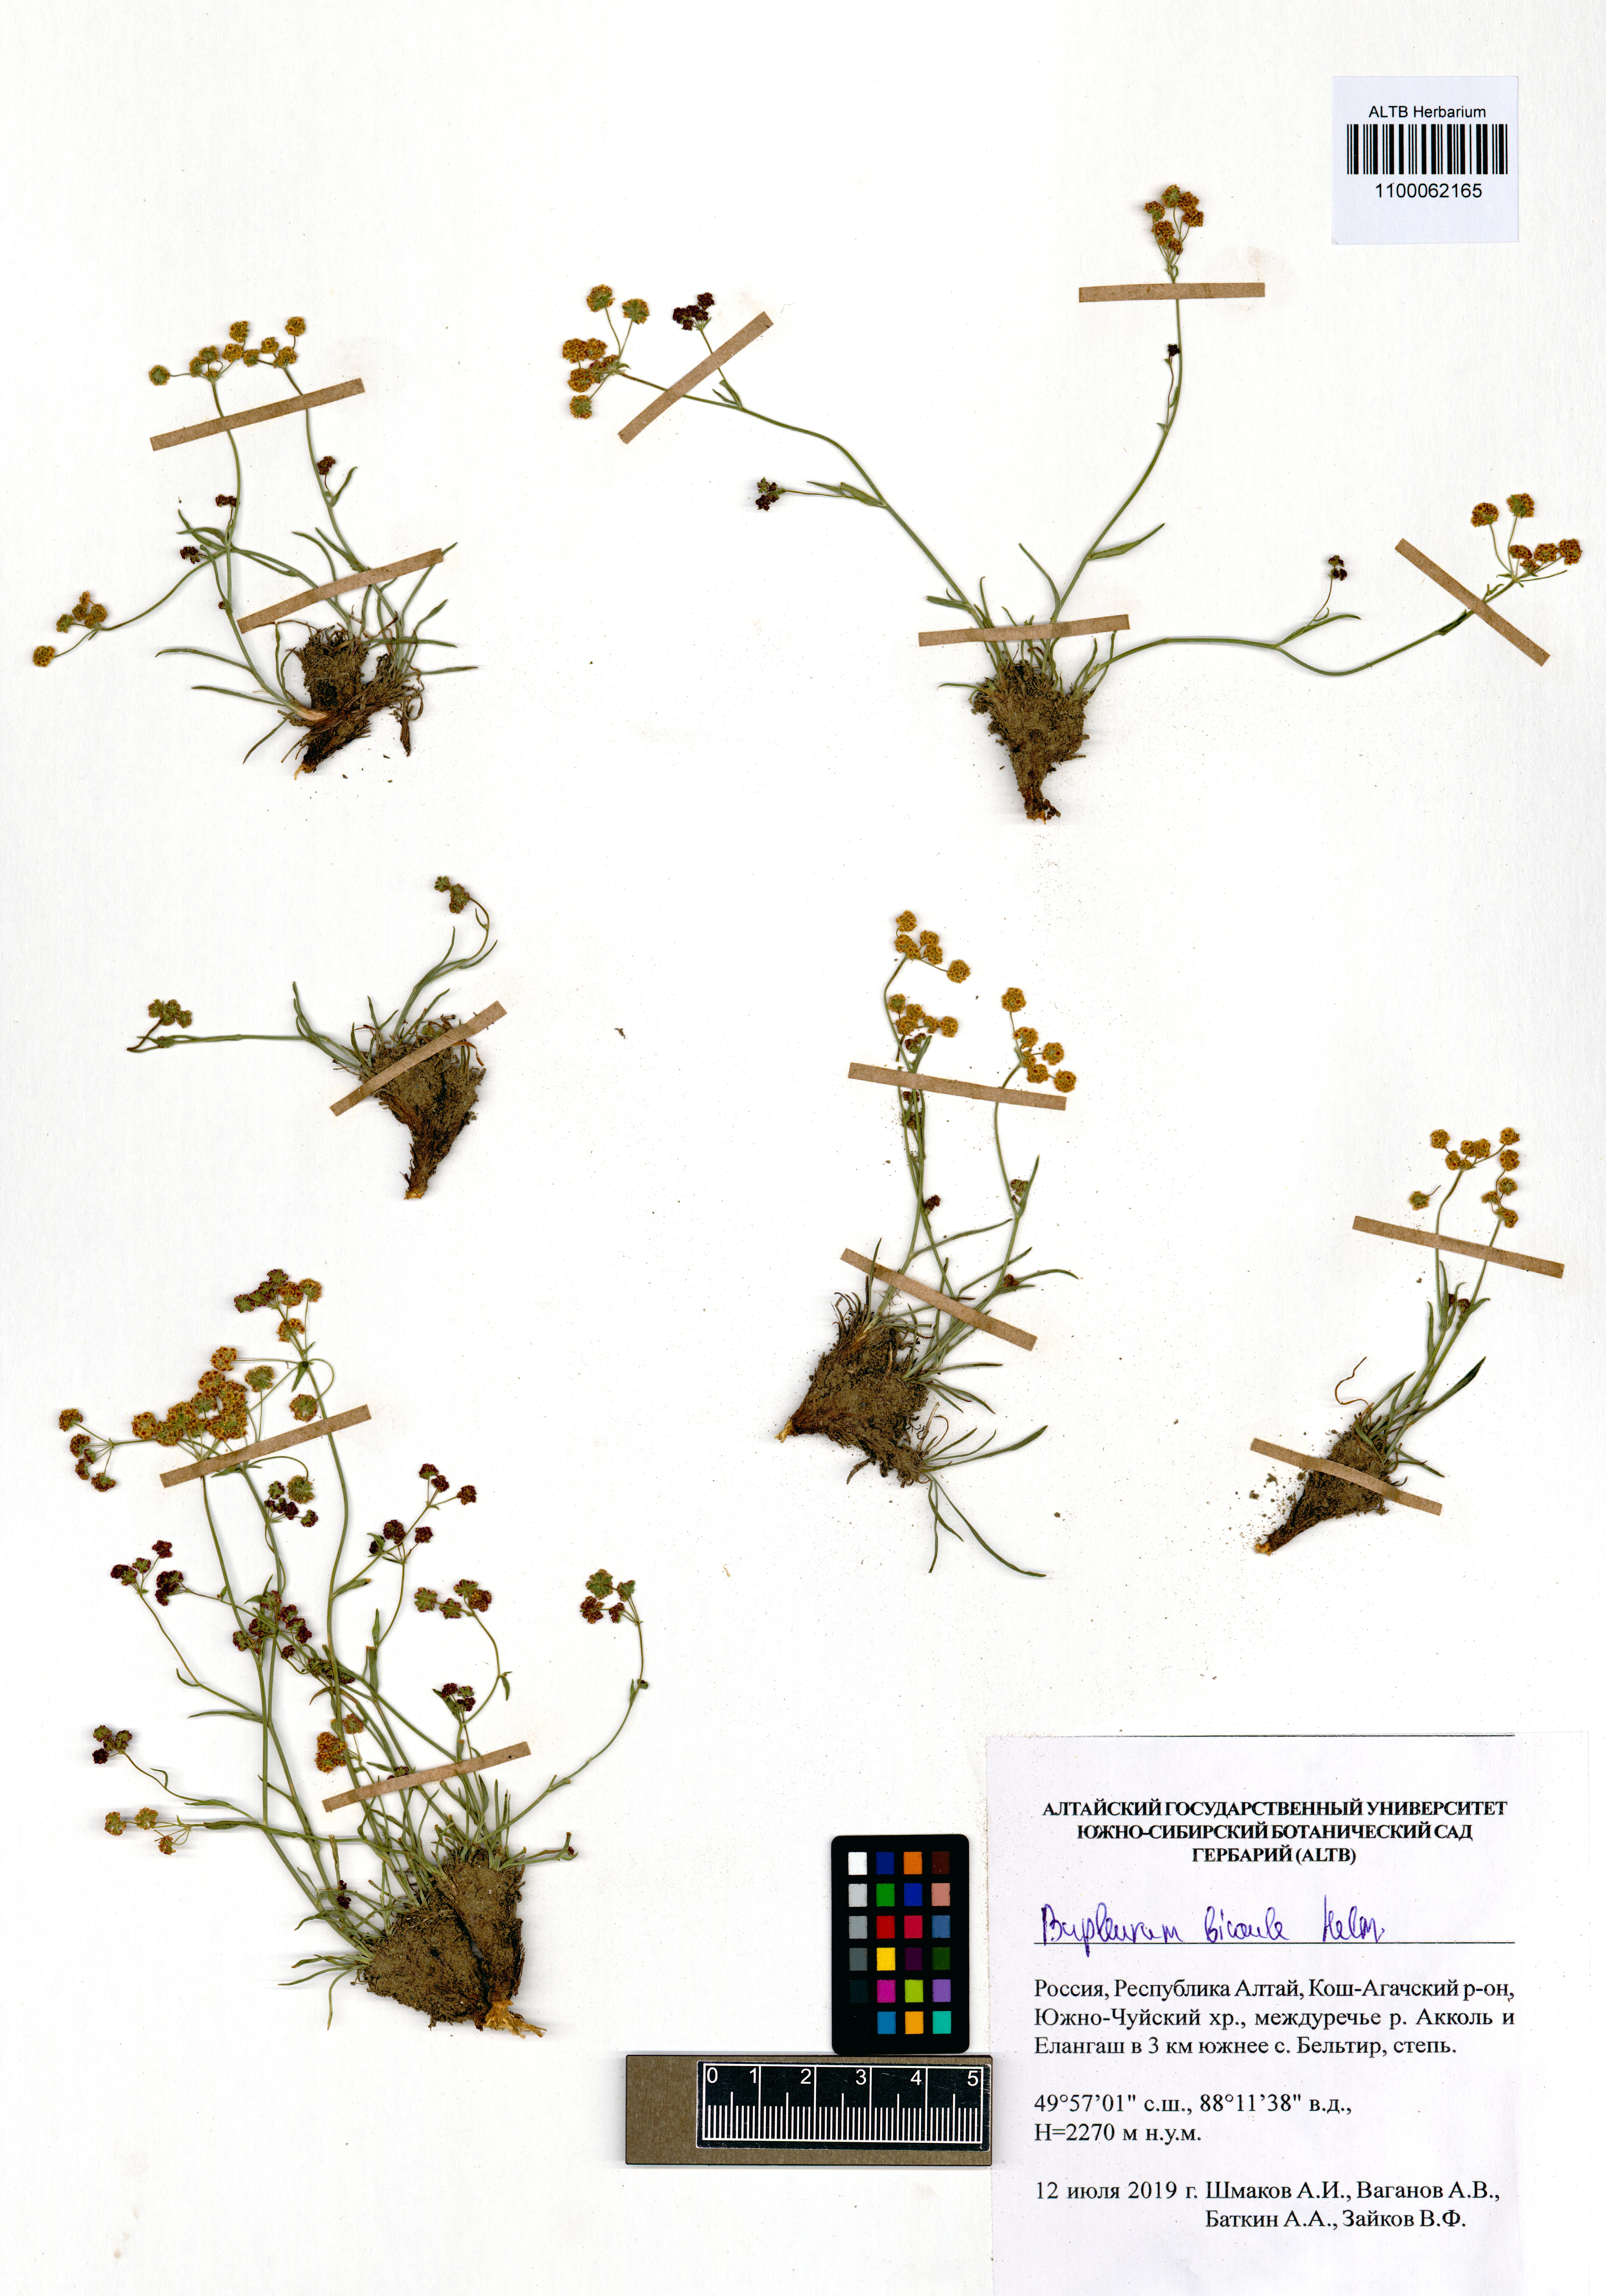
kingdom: Plantae
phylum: Tracheophyta
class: Magnoliopsida
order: Apiales
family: Apiaceae
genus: Bupleurum
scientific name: Bupleurum bicaule
